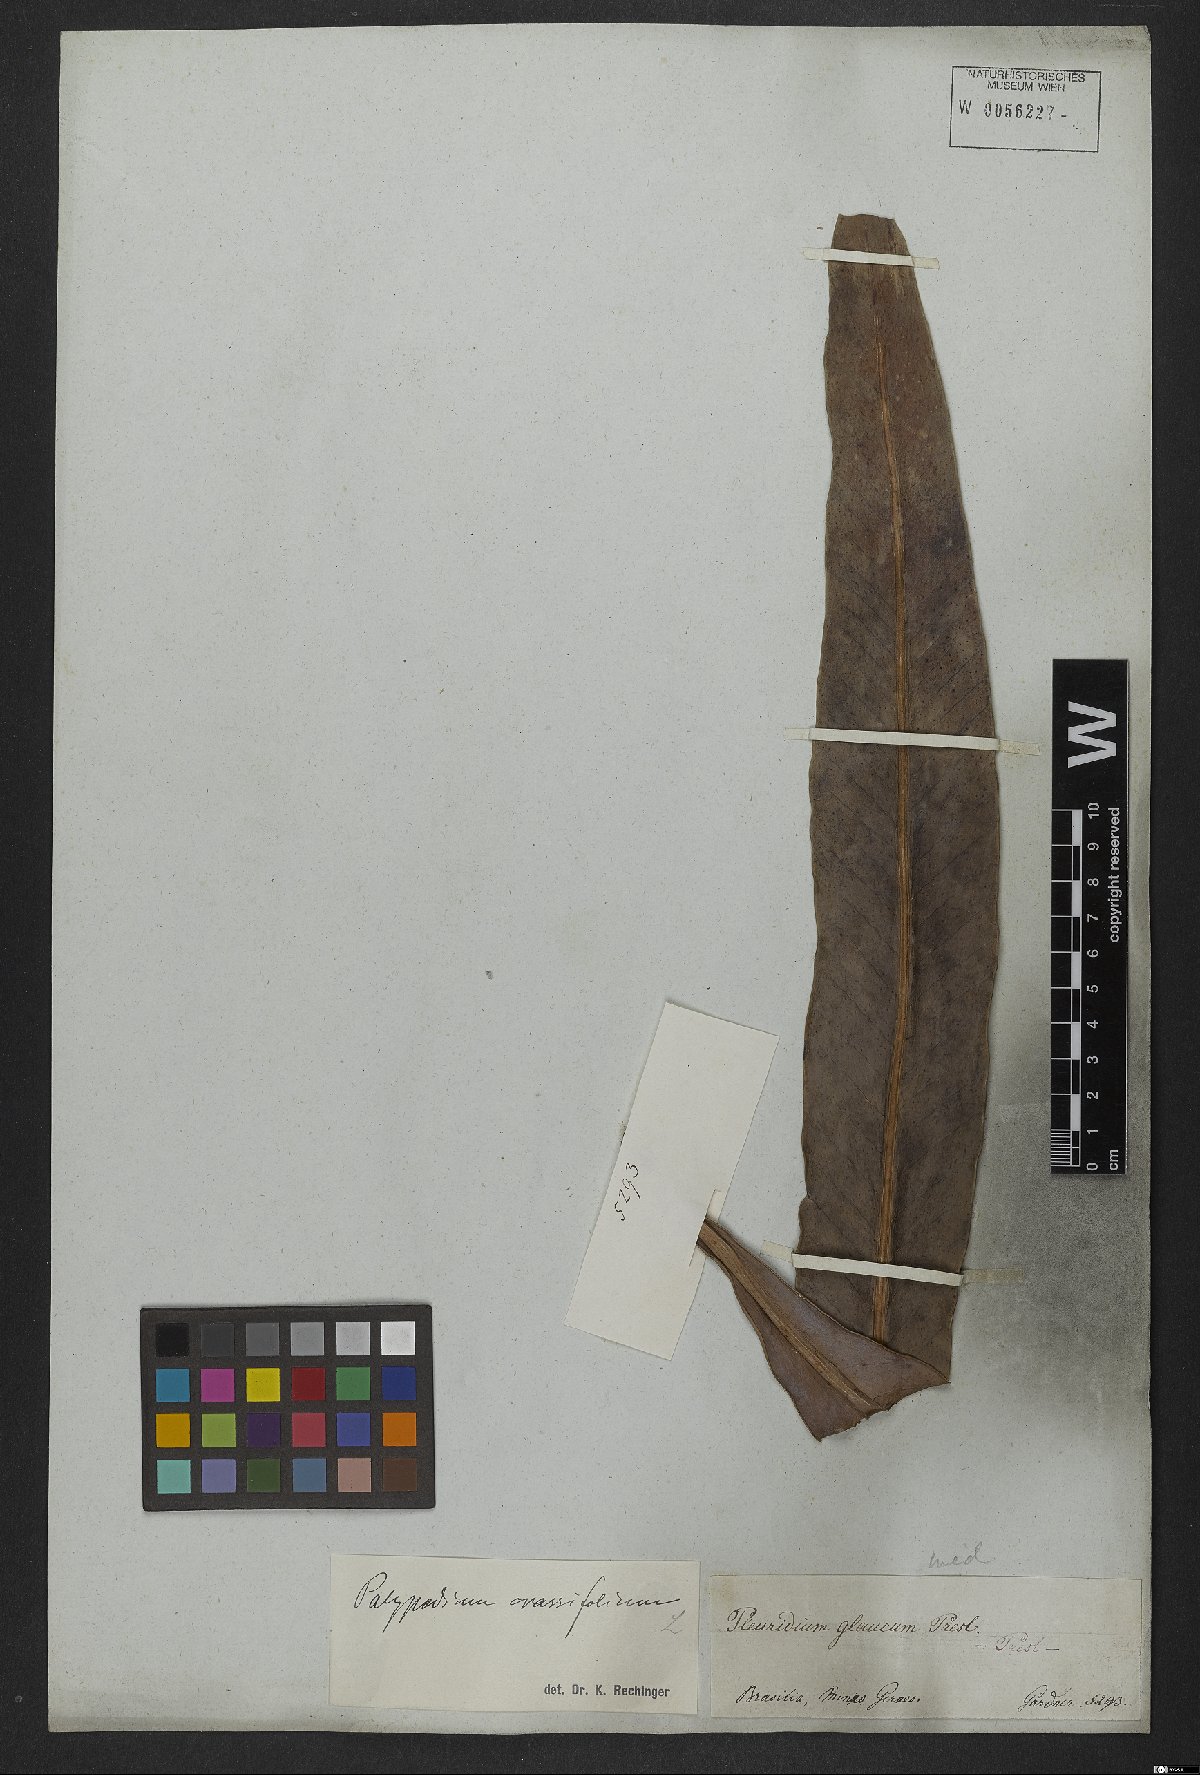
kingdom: Plantae
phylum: Tracheophyta
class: Polypodiopsida
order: Polypodiales
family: Polypodiaceae
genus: Niphidium
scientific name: Niphidium crassifolium
